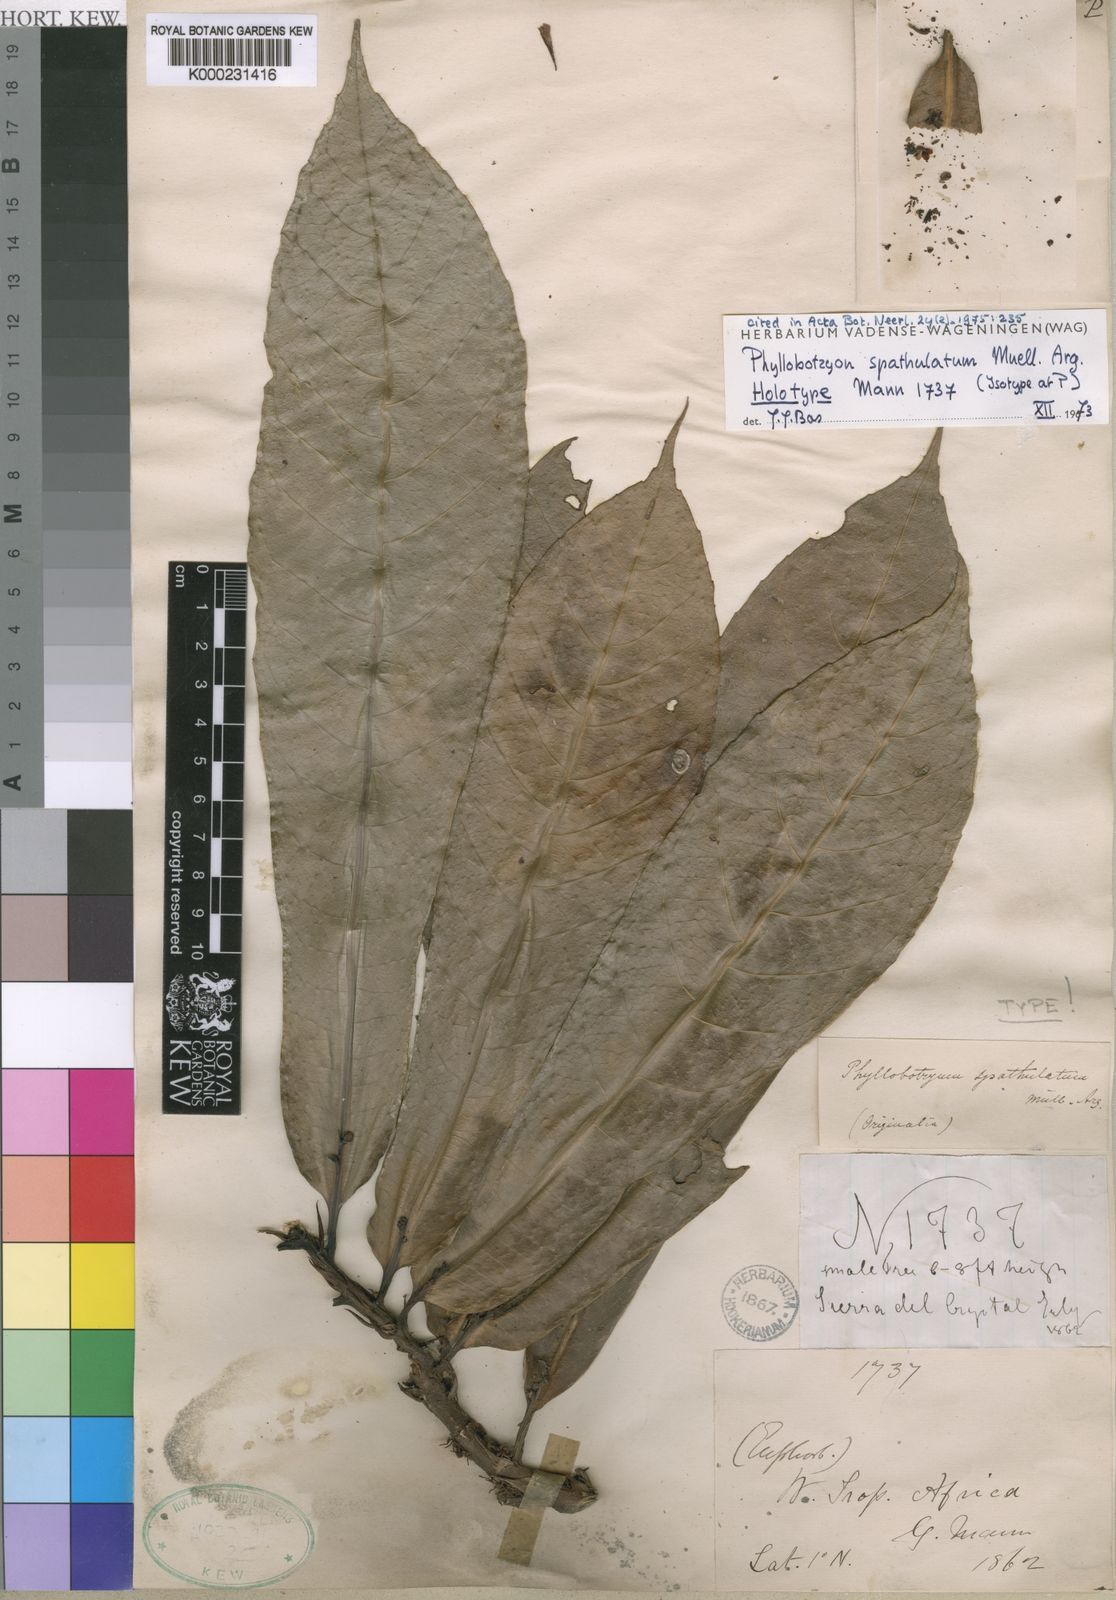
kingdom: Plantae
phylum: Tracheophyta
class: Magnoliopsida
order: Malpighiales
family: Salicaceae
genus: Phyllobotryon
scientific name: Phyllobotryon
